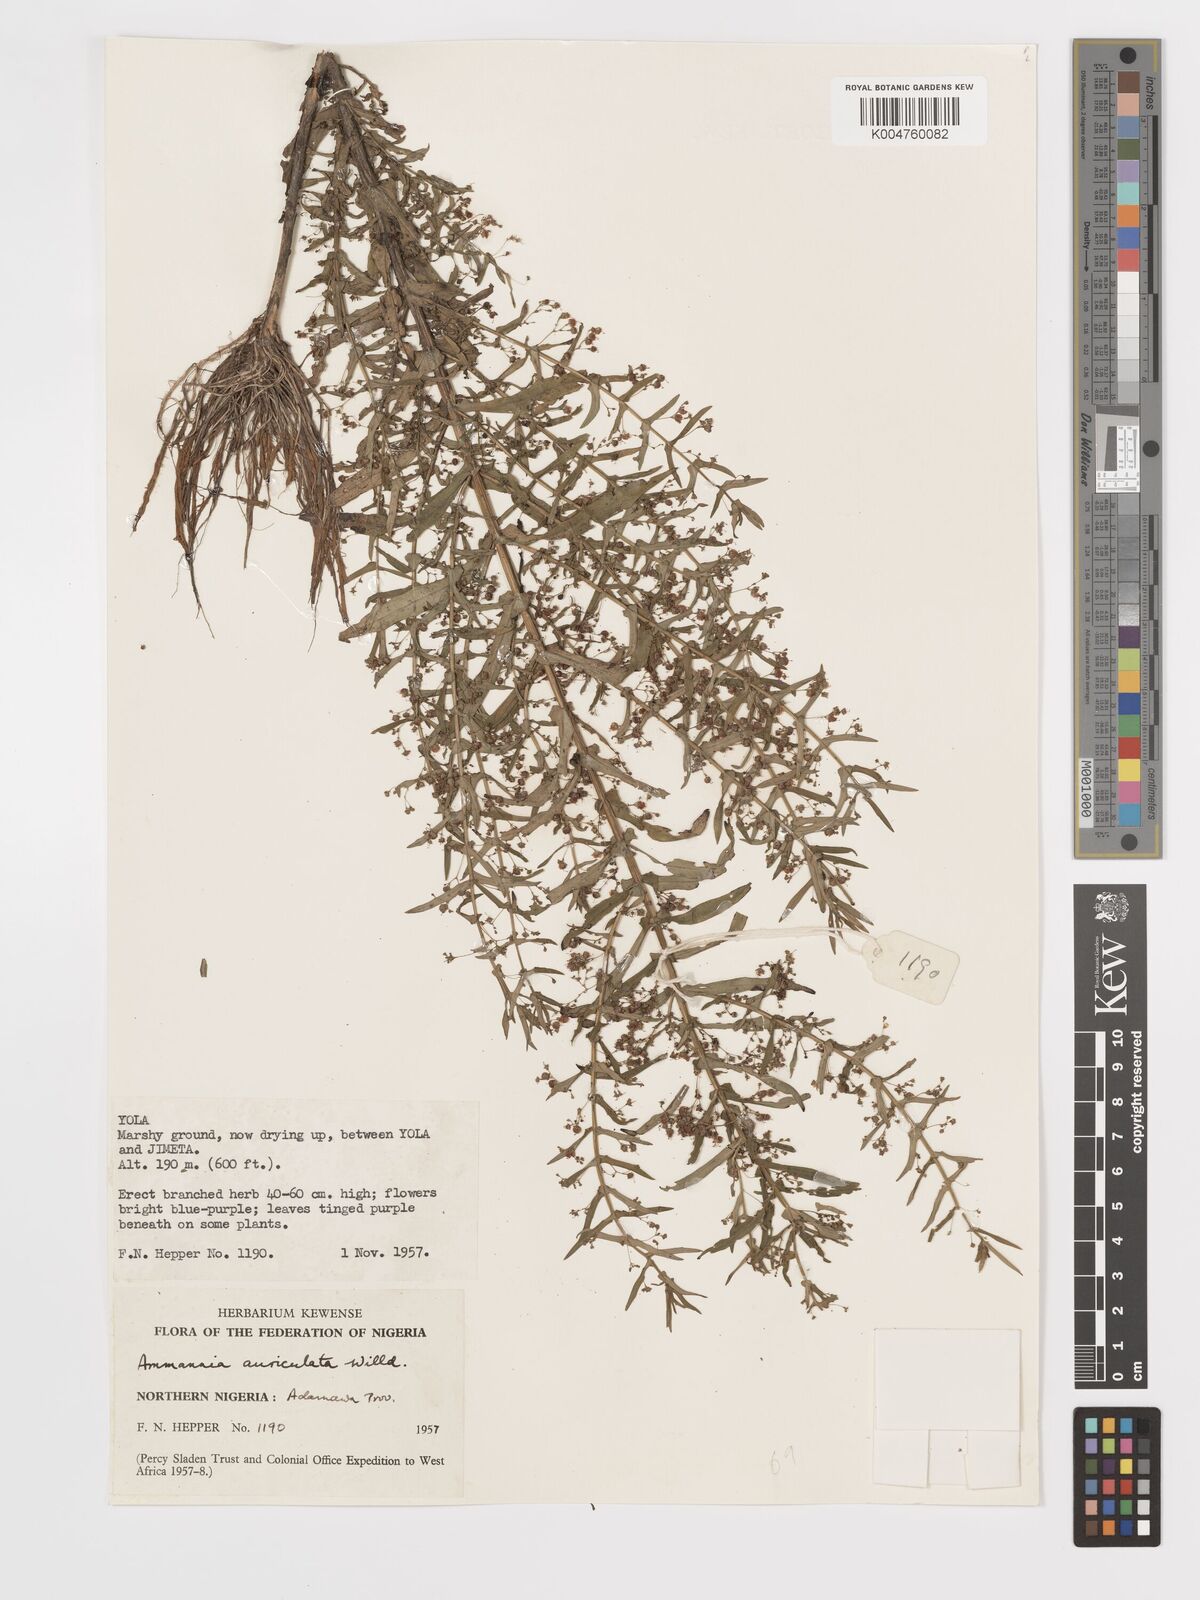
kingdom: Plantae
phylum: Tracheophyta
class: Magnoliopsida
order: Myrtales
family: Lythraceae
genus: Ammannia
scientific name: Ammannia auriculata
